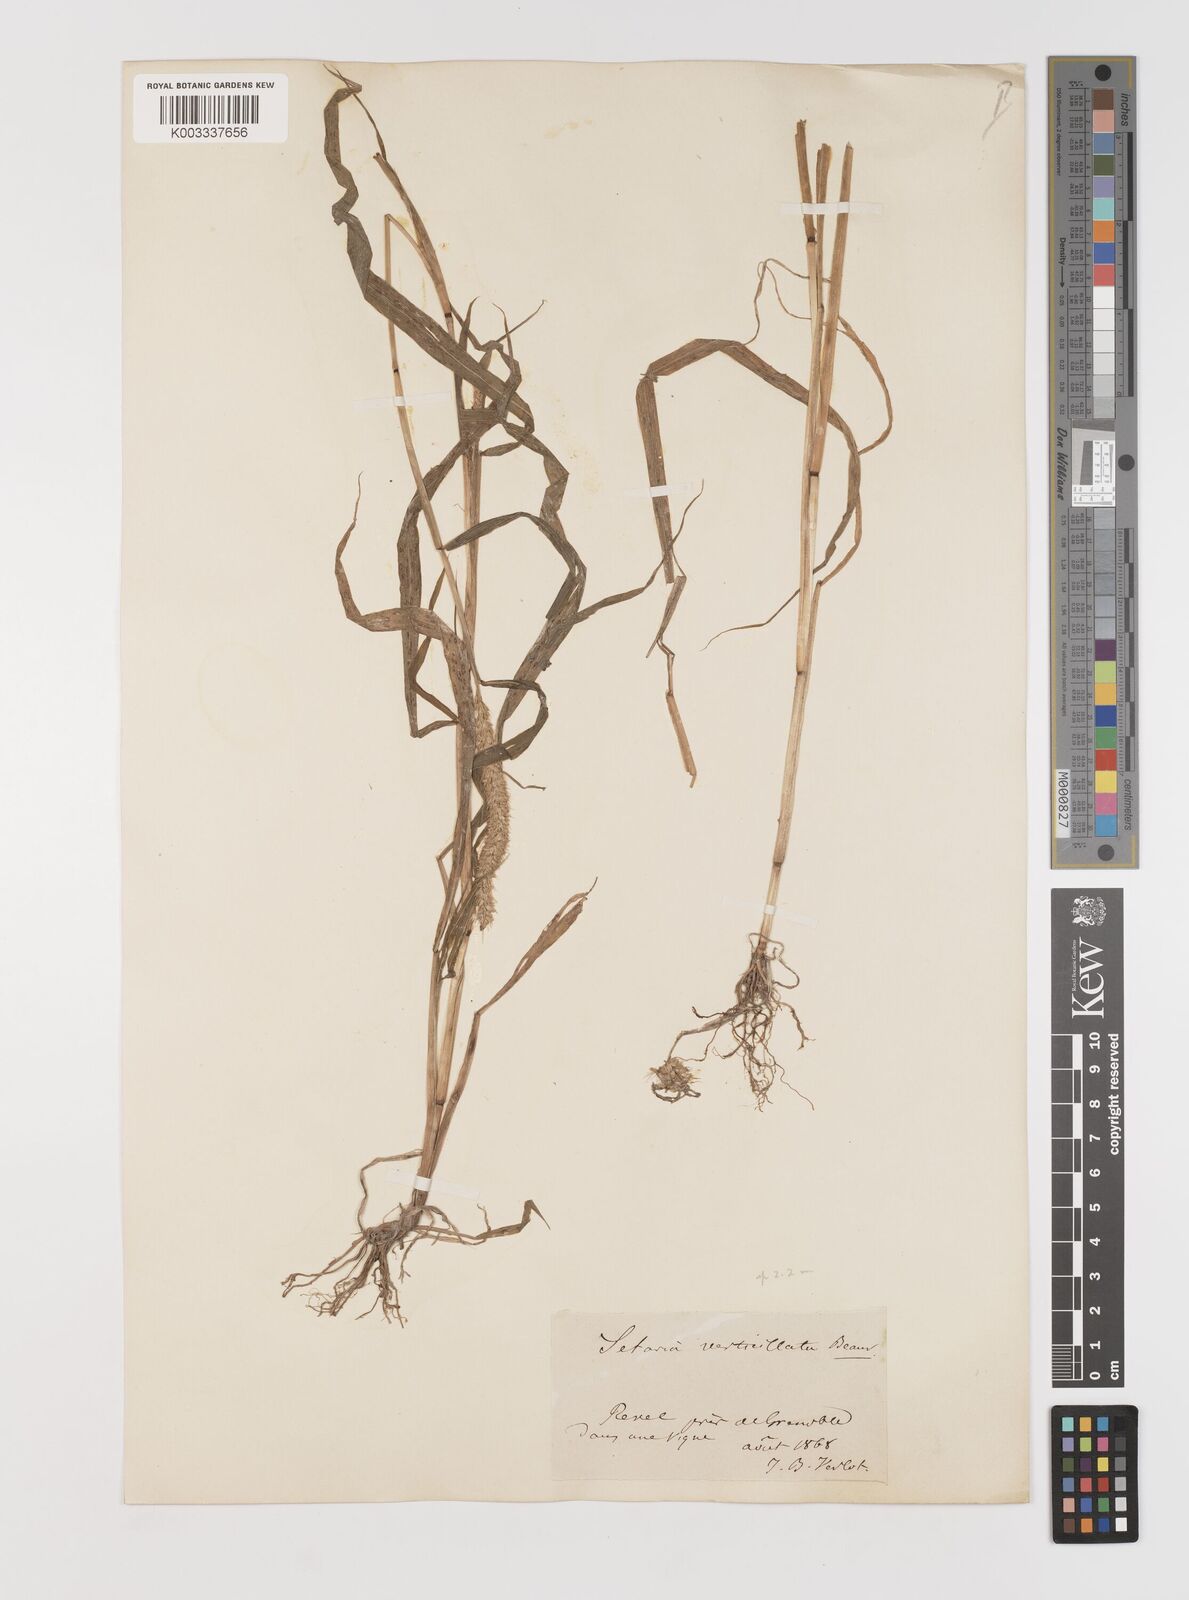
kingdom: Plantae
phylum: Tracheophyta
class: Liliopsida
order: Poales
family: Poaceae
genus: Setaria
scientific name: Setaria verticillata
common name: Hooked bristlegrass
